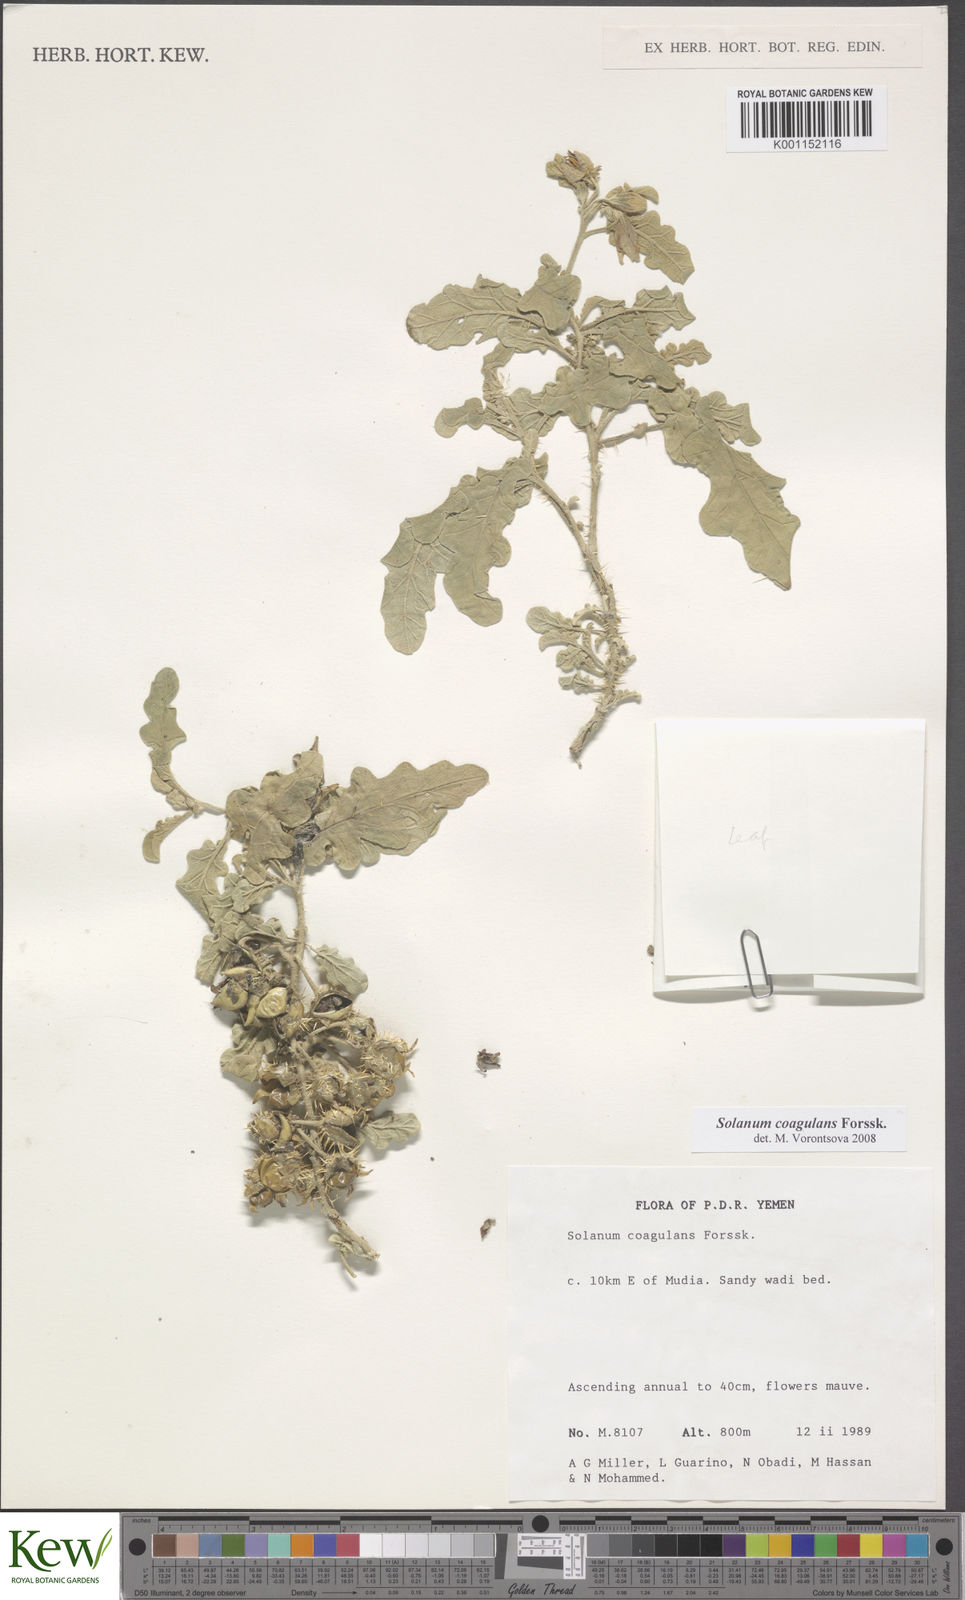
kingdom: Plantae
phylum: Tracheophyta
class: Magnoliopsida
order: Solanales
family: Solanaceae
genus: Solanum
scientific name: Solanum coagulans
